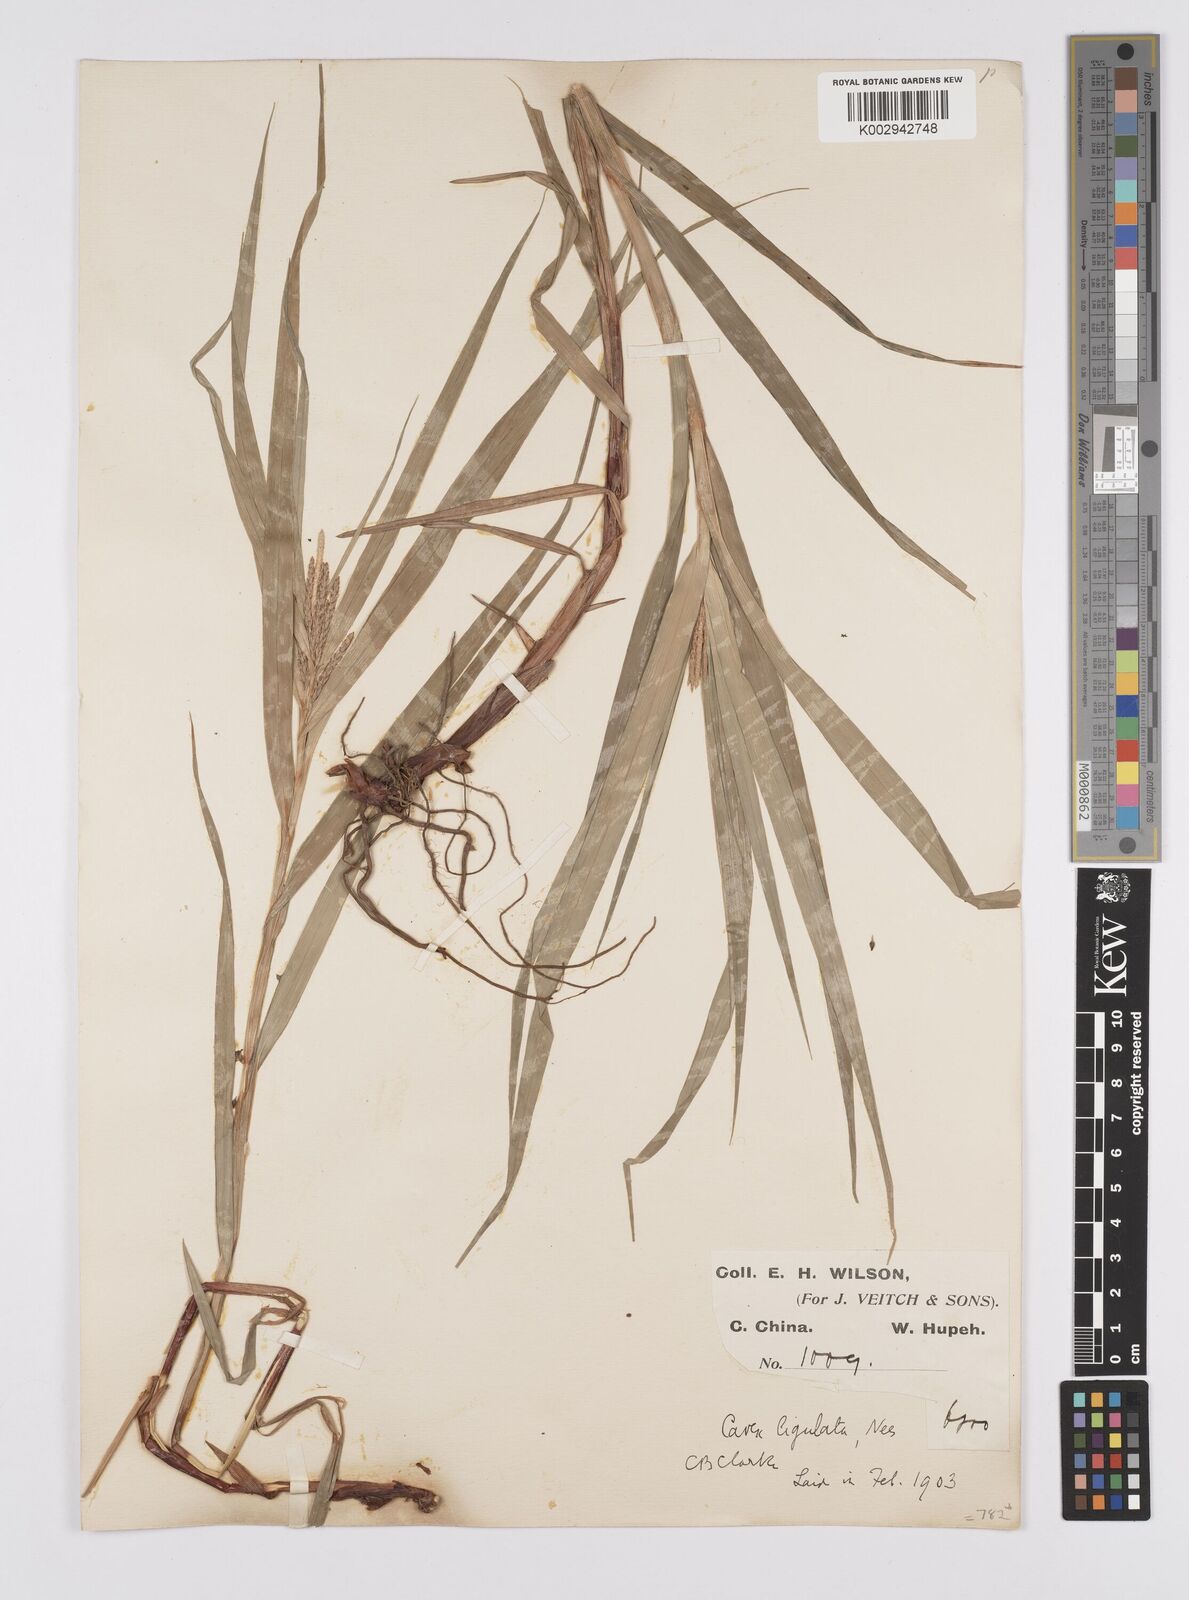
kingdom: Plantae
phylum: Tracheophyta
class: Liliopsida
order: Poales
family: Cyperaceae
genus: Carex
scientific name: Carex ligulata
